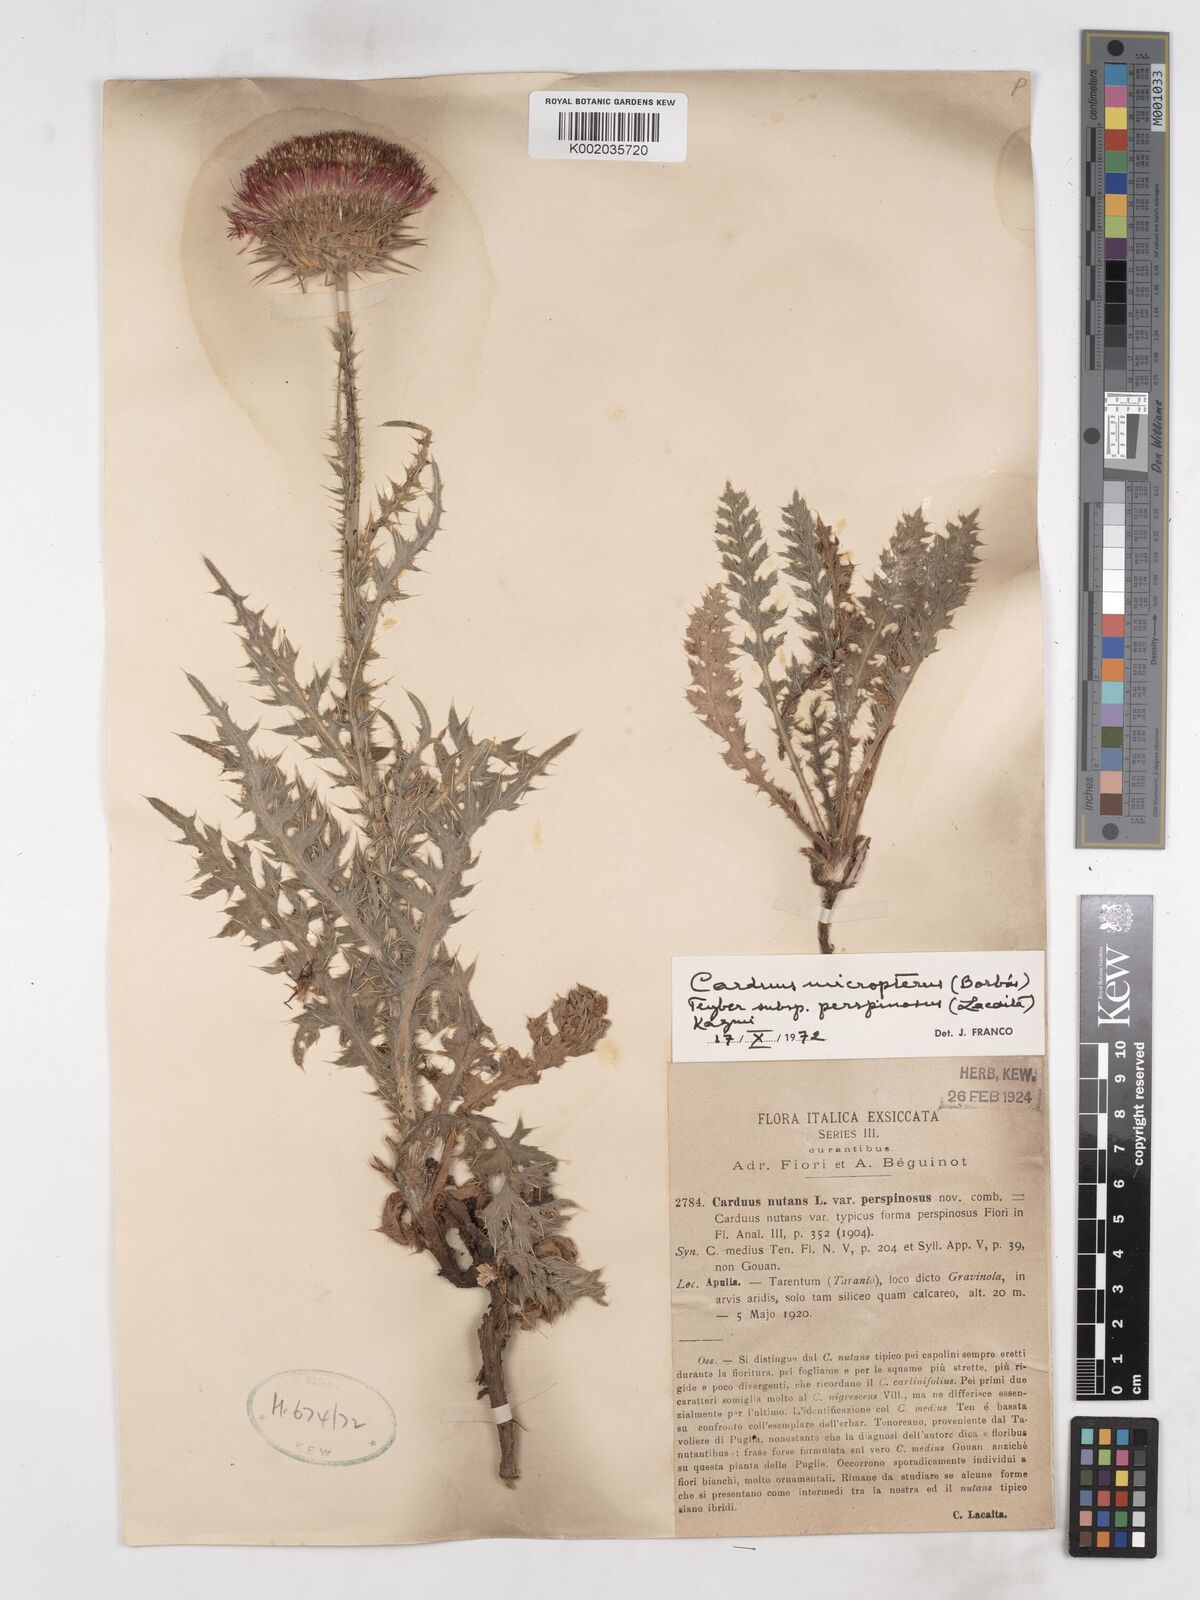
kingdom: Plantae
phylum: Tracheophyta
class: Magnoliopsida
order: Asterales
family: Asteraceae
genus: Carduus
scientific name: Carduus nutans
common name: Musk thistle
